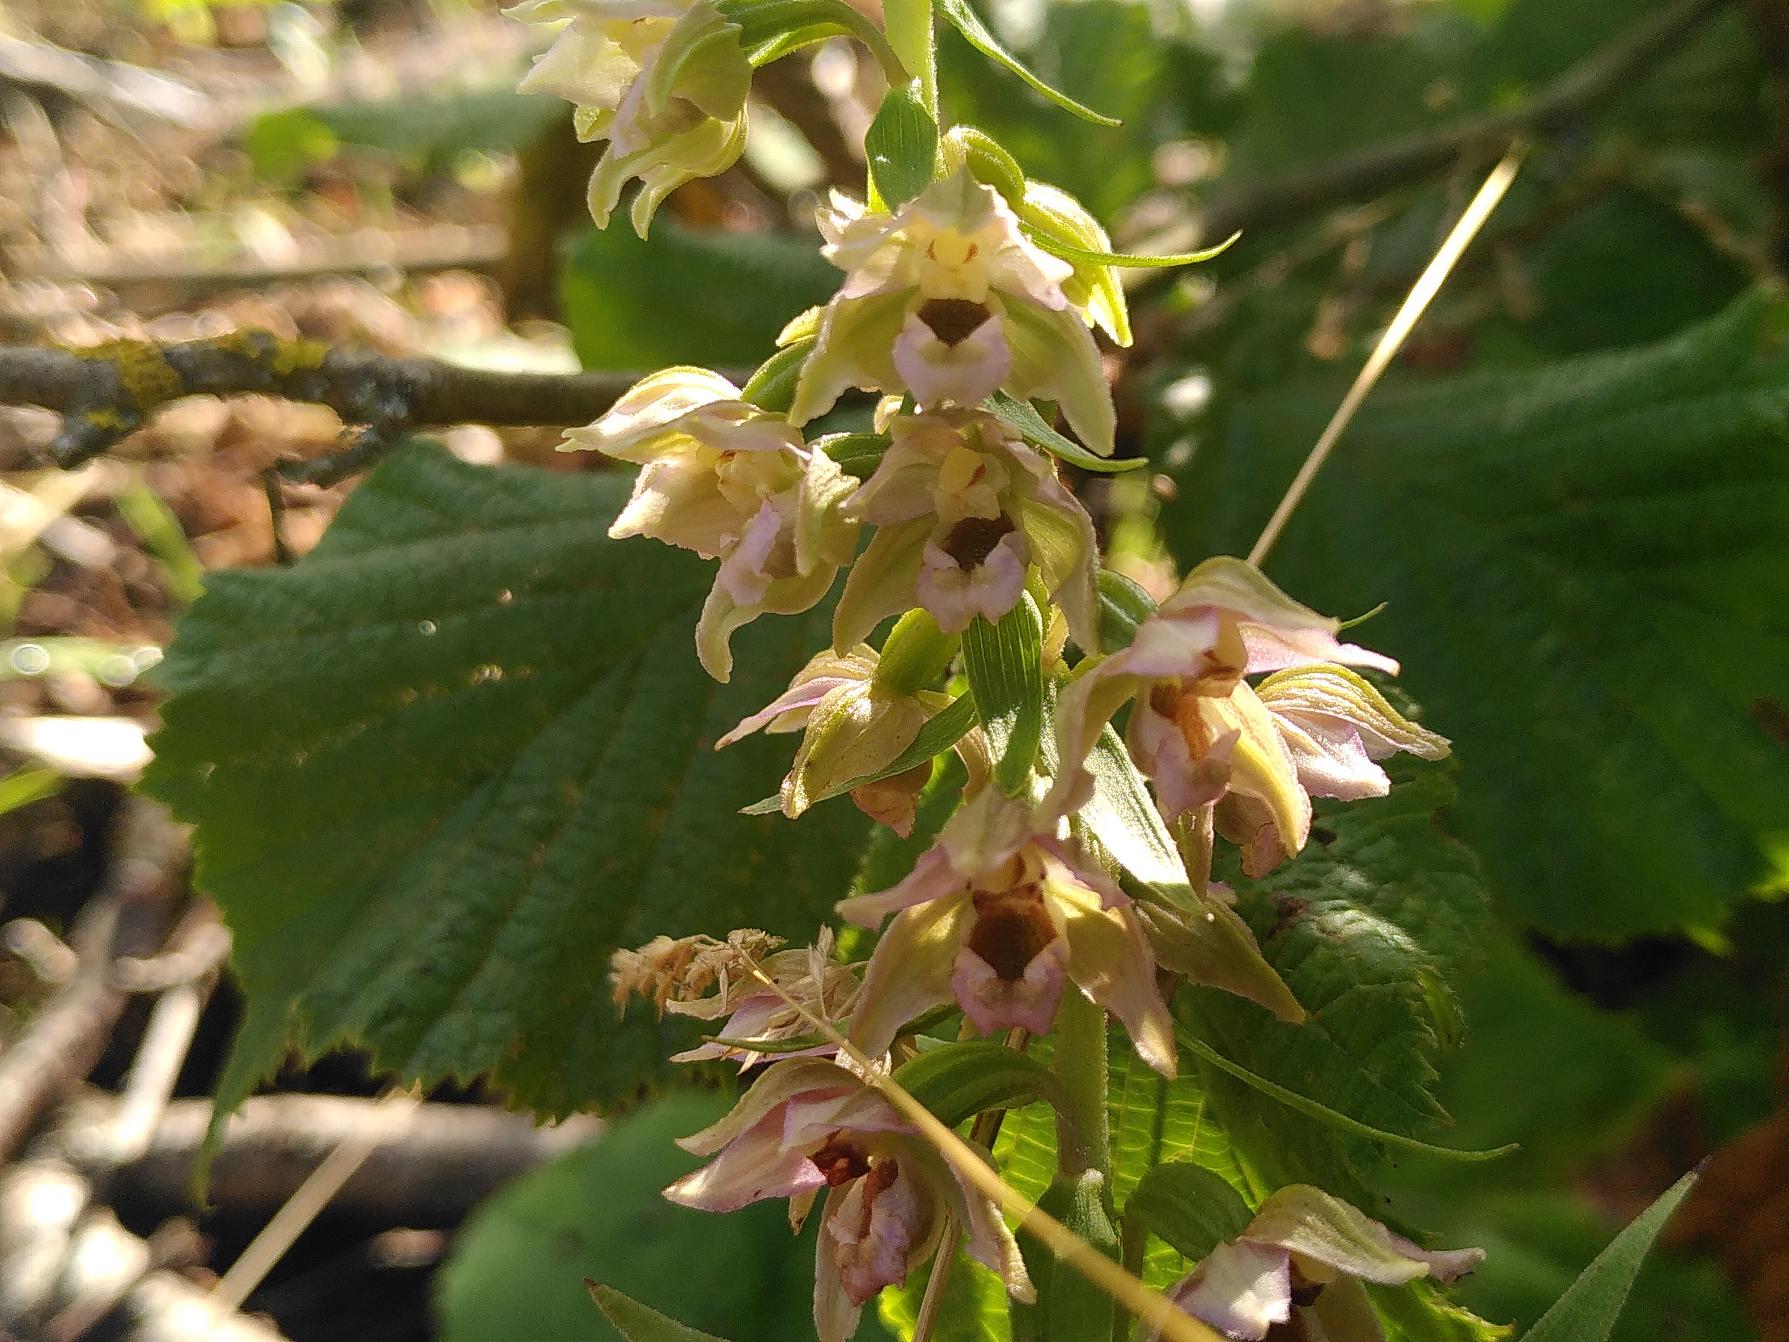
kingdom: Plantae
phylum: Tracheophyta
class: Liliopsida
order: Asparagales
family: Orchidaceae
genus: Epipactis
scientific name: Epipactis helleborine
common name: Skov-hullæbe
